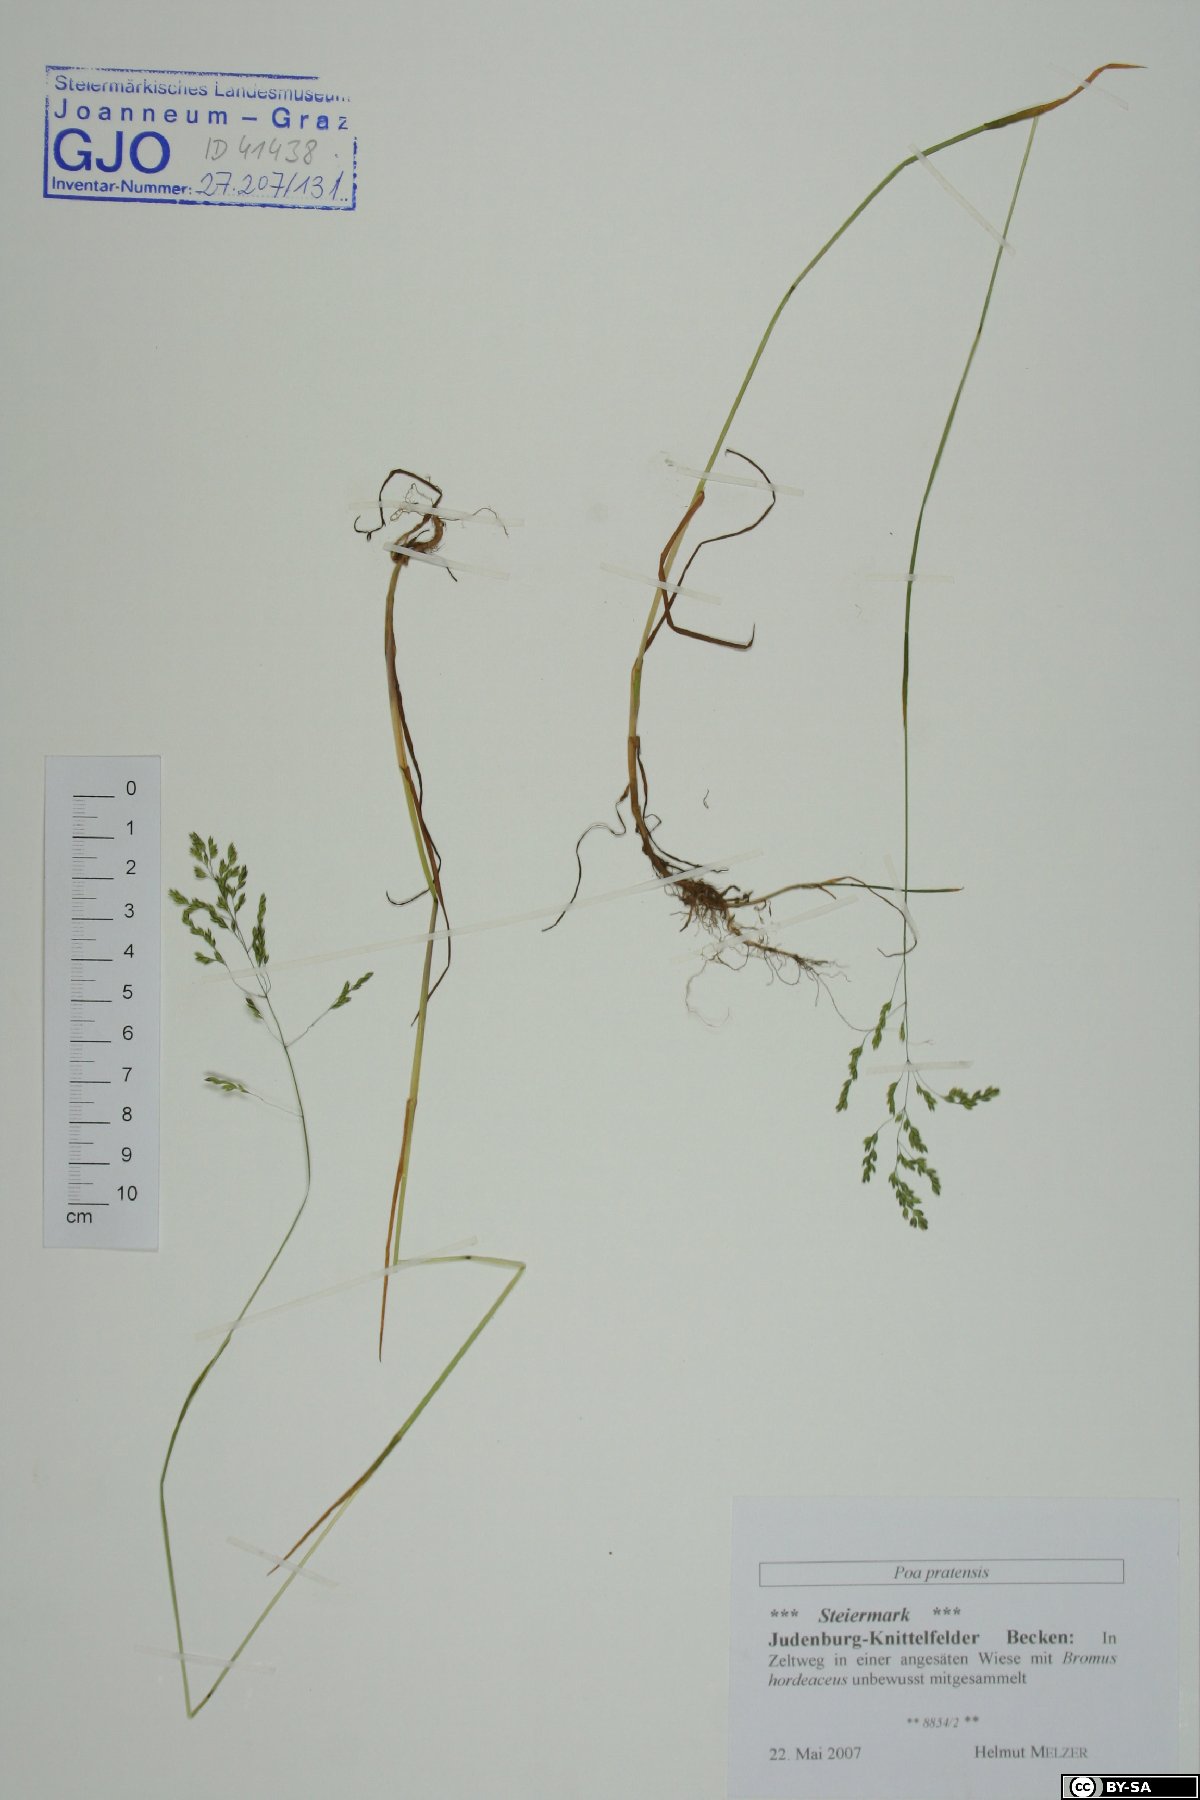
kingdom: Plantae
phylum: Tracheophyta
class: Liliopsida
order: Poales
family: Poaceae
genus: Poa
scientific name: Poa pratensis
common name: Kentucky bluegrass
